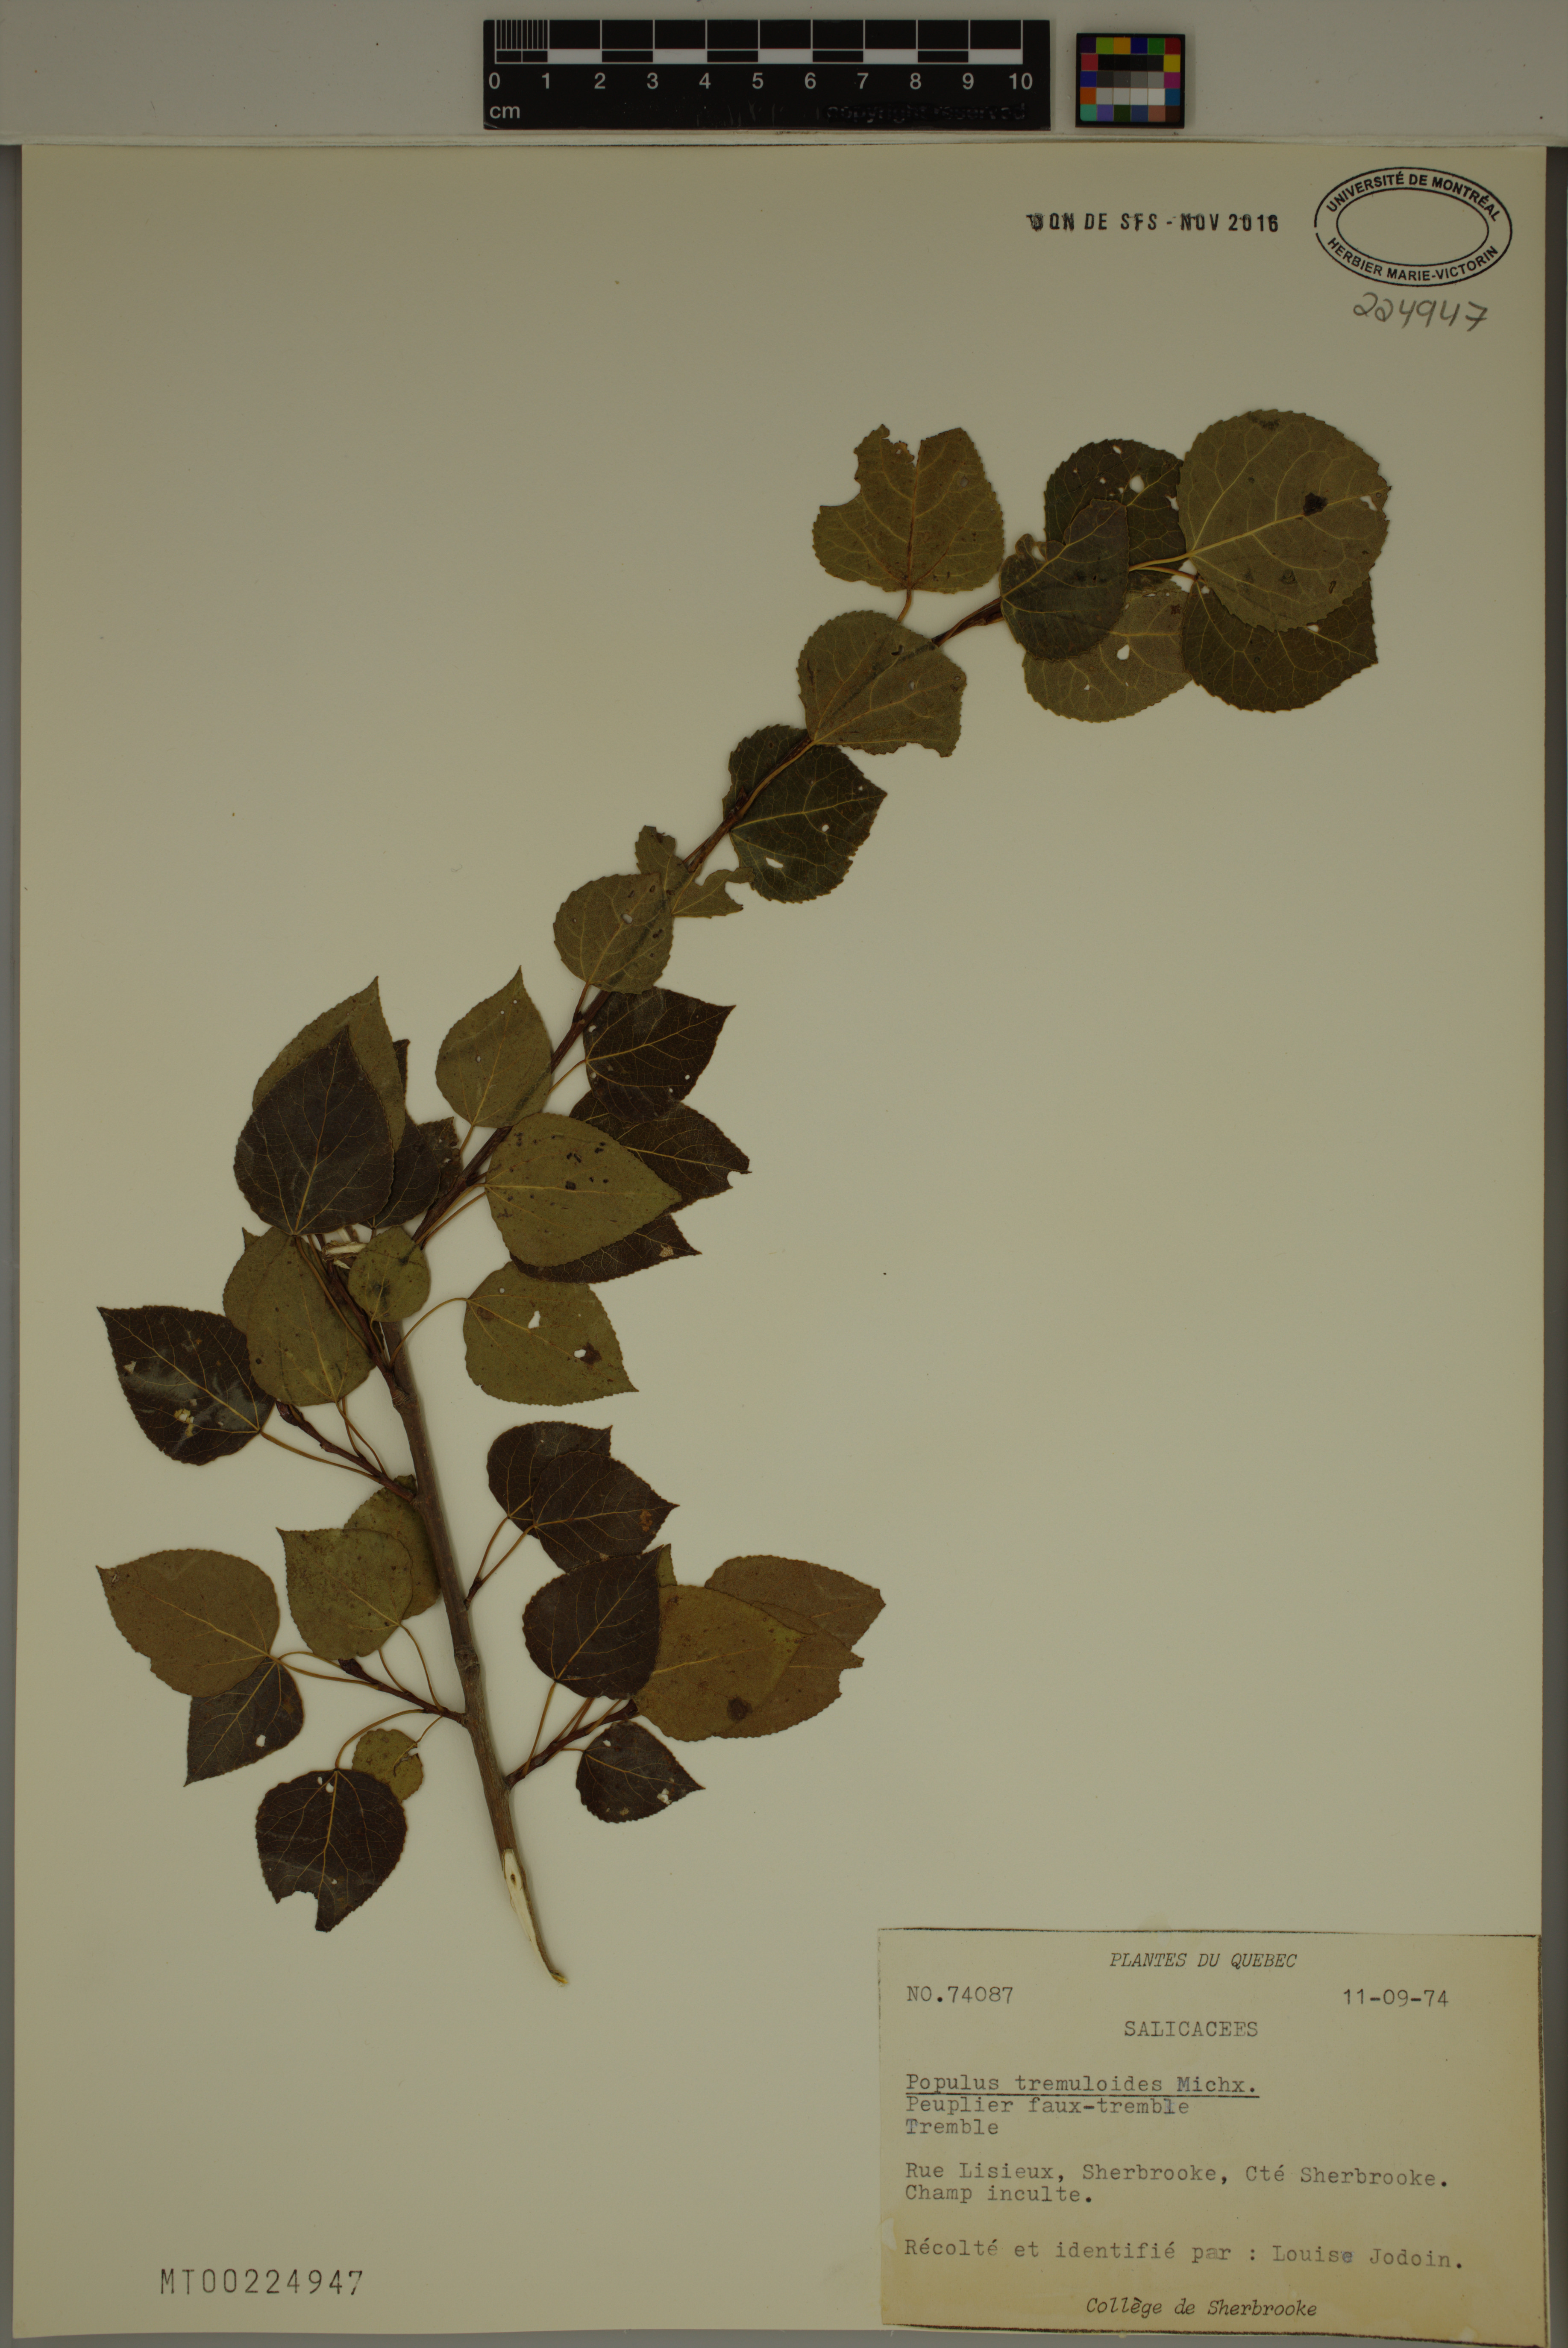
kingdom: Plantae
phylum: Tracheophyta
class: Magnoliopsida
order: Malpighiales
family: Salicaceae
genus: Populus
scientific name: Populus tremuloides
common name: Quaking aspen
